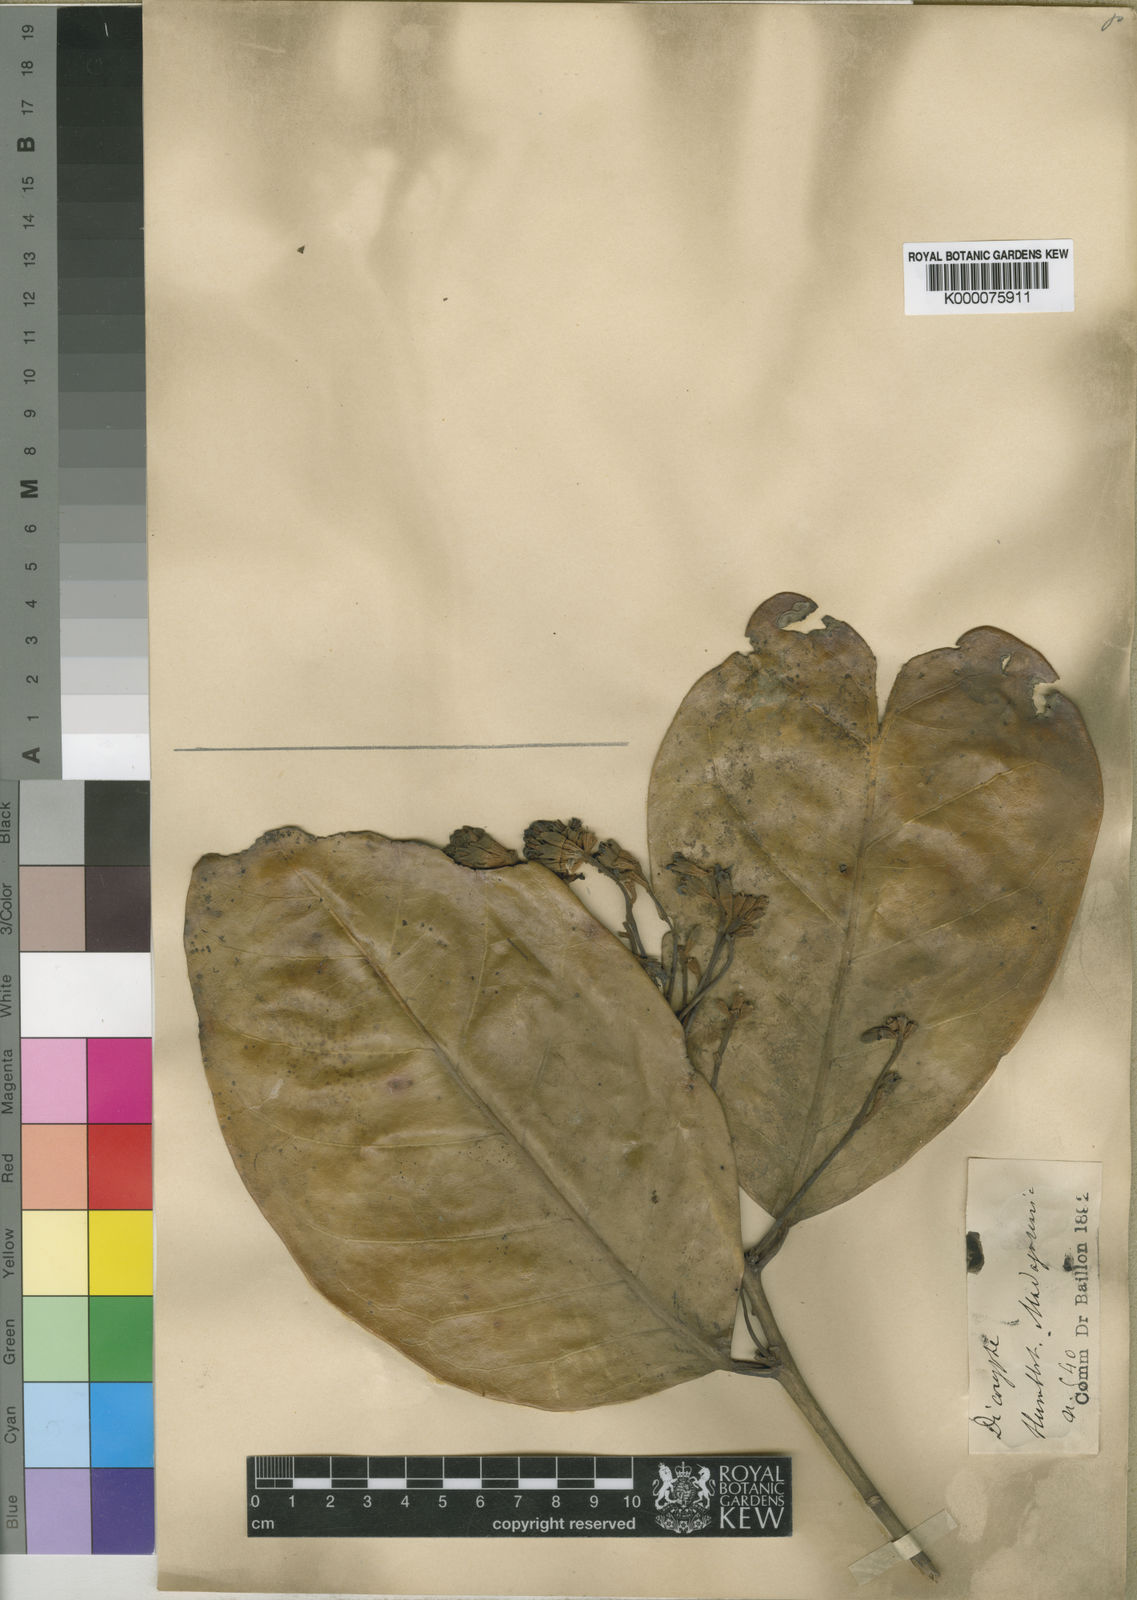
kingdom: Plantae
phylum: Tracheophyta
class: Magnoliopsida
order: Saxifragales
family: Hamamelidaceae
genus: Dicoryphe
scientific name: Dicoryphe macrophylla
